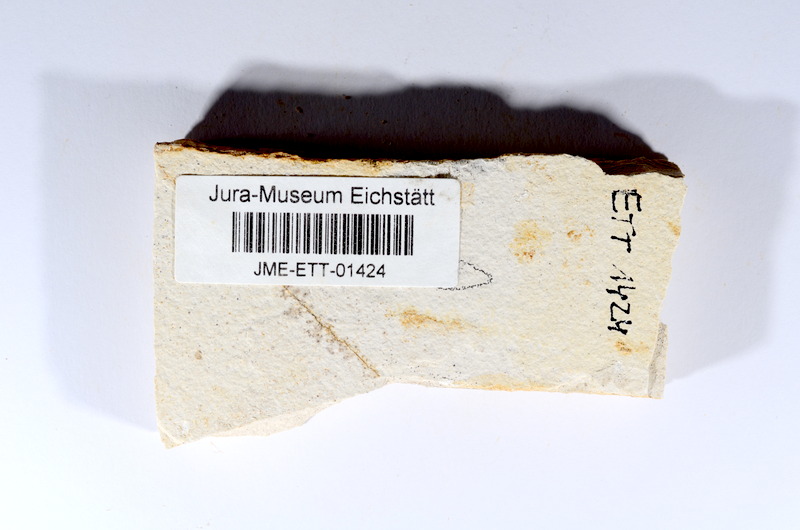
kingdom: Animalia
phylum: Chordata
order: Salmoniformes
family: Orthogonikleithridae
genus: Orthogonikleithrus
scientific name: Orthogonikleithrus hoelli
